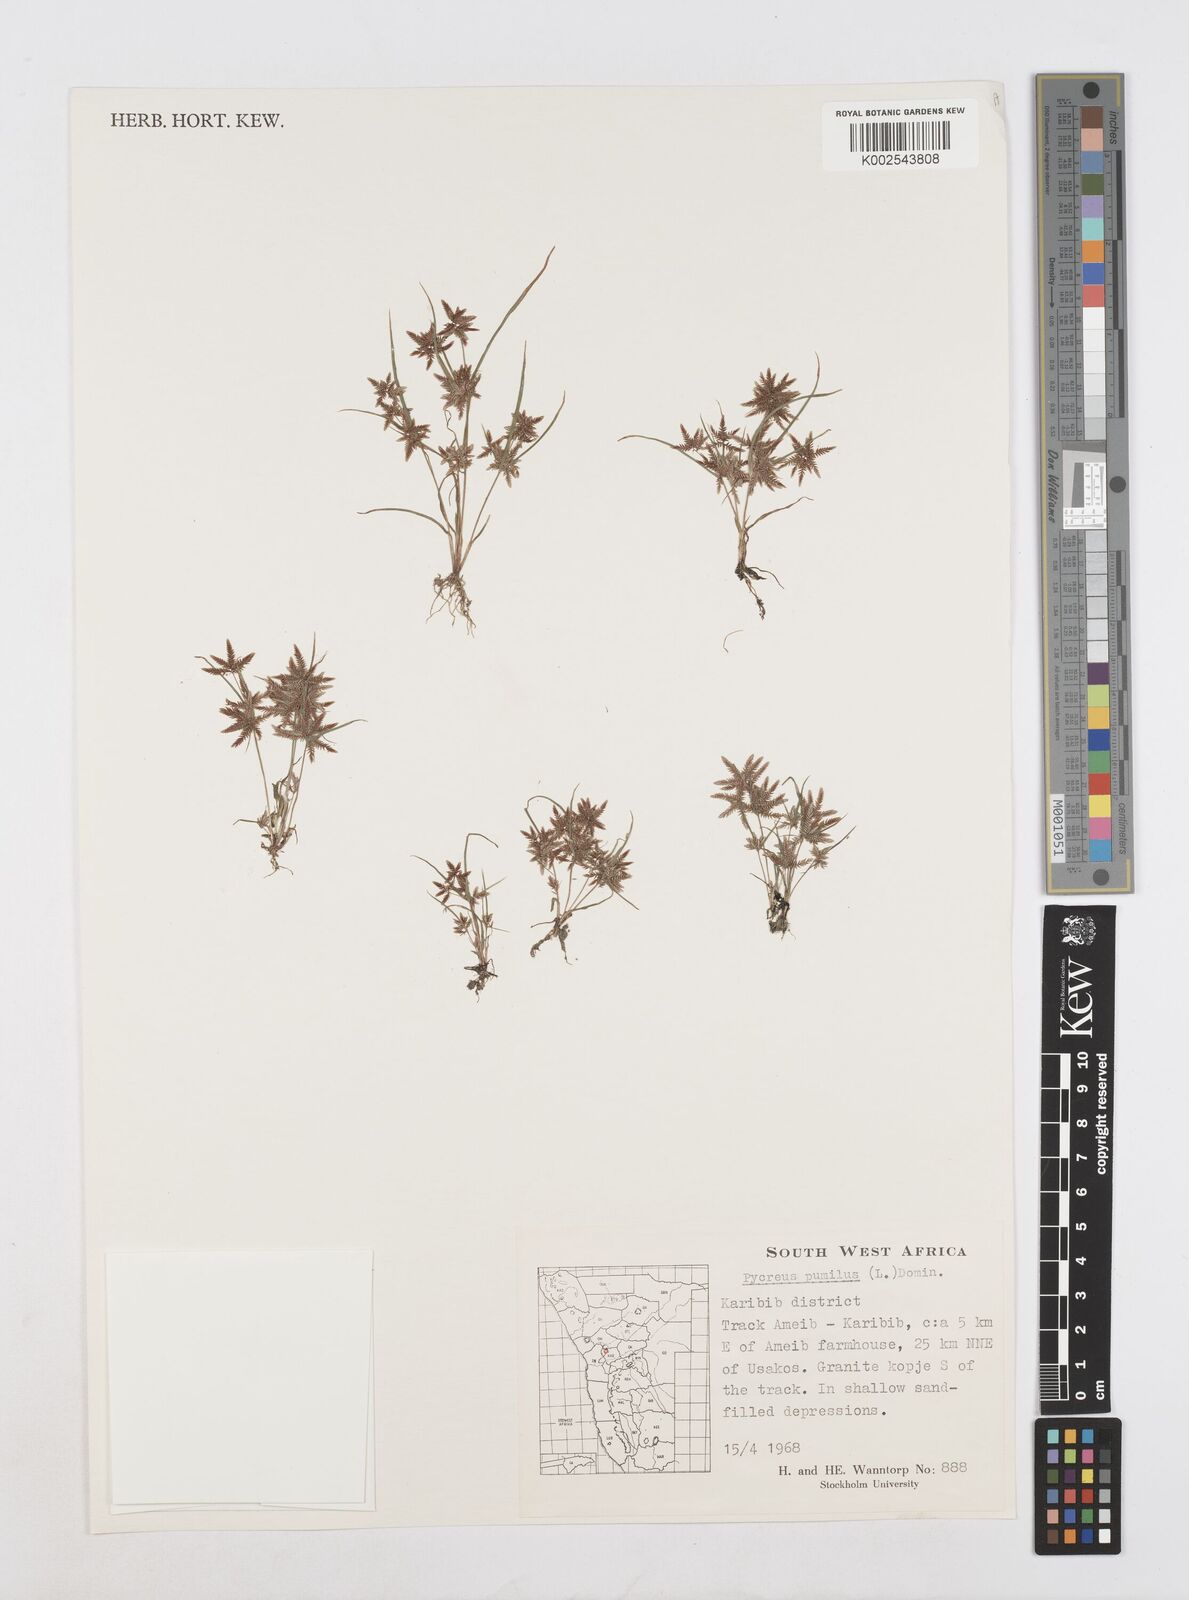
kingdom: Plantae
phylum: Tracheophyta
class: Liliopsida
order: Poales
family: Cyperaceae
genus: Cyperus
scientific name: Cyperus pumilus
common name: Low flatsedge
